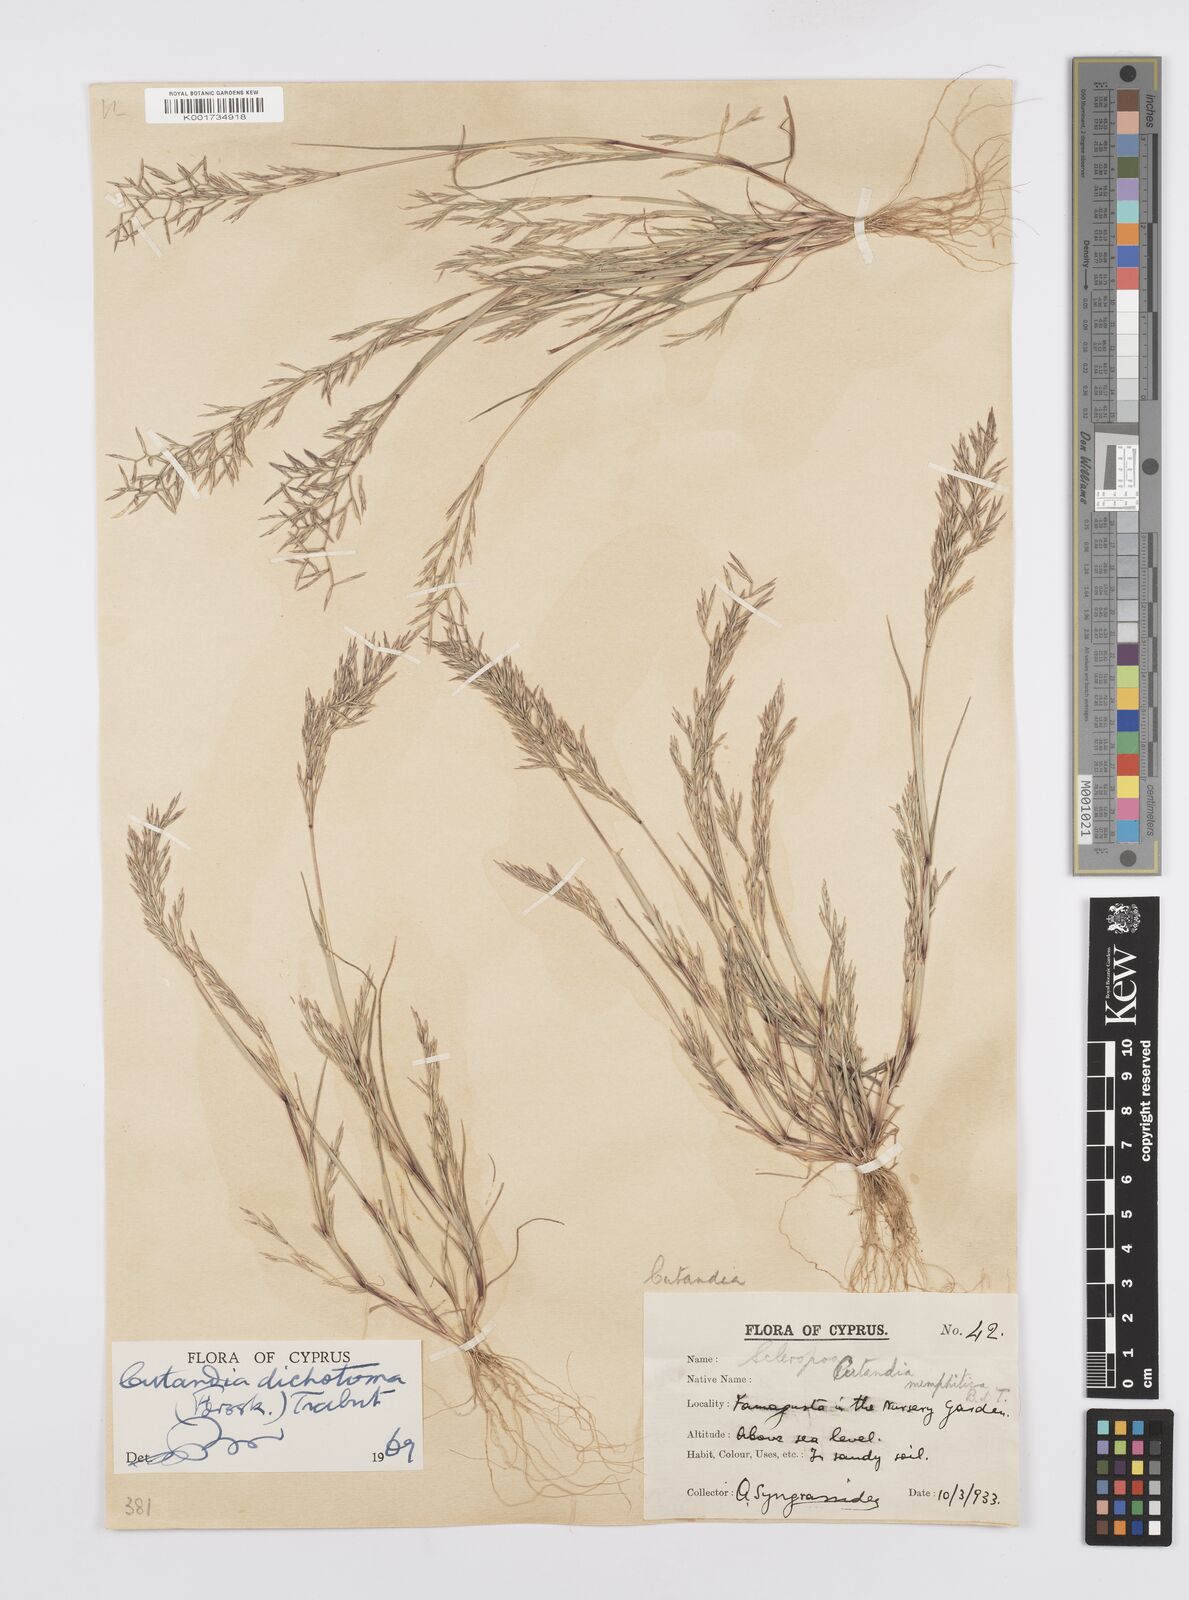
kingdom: Plantae
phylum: Tracheophyta
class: Liliopsida
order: Poales
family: Poaceae
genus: Cutandia
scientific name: Cutandia dichotoma
